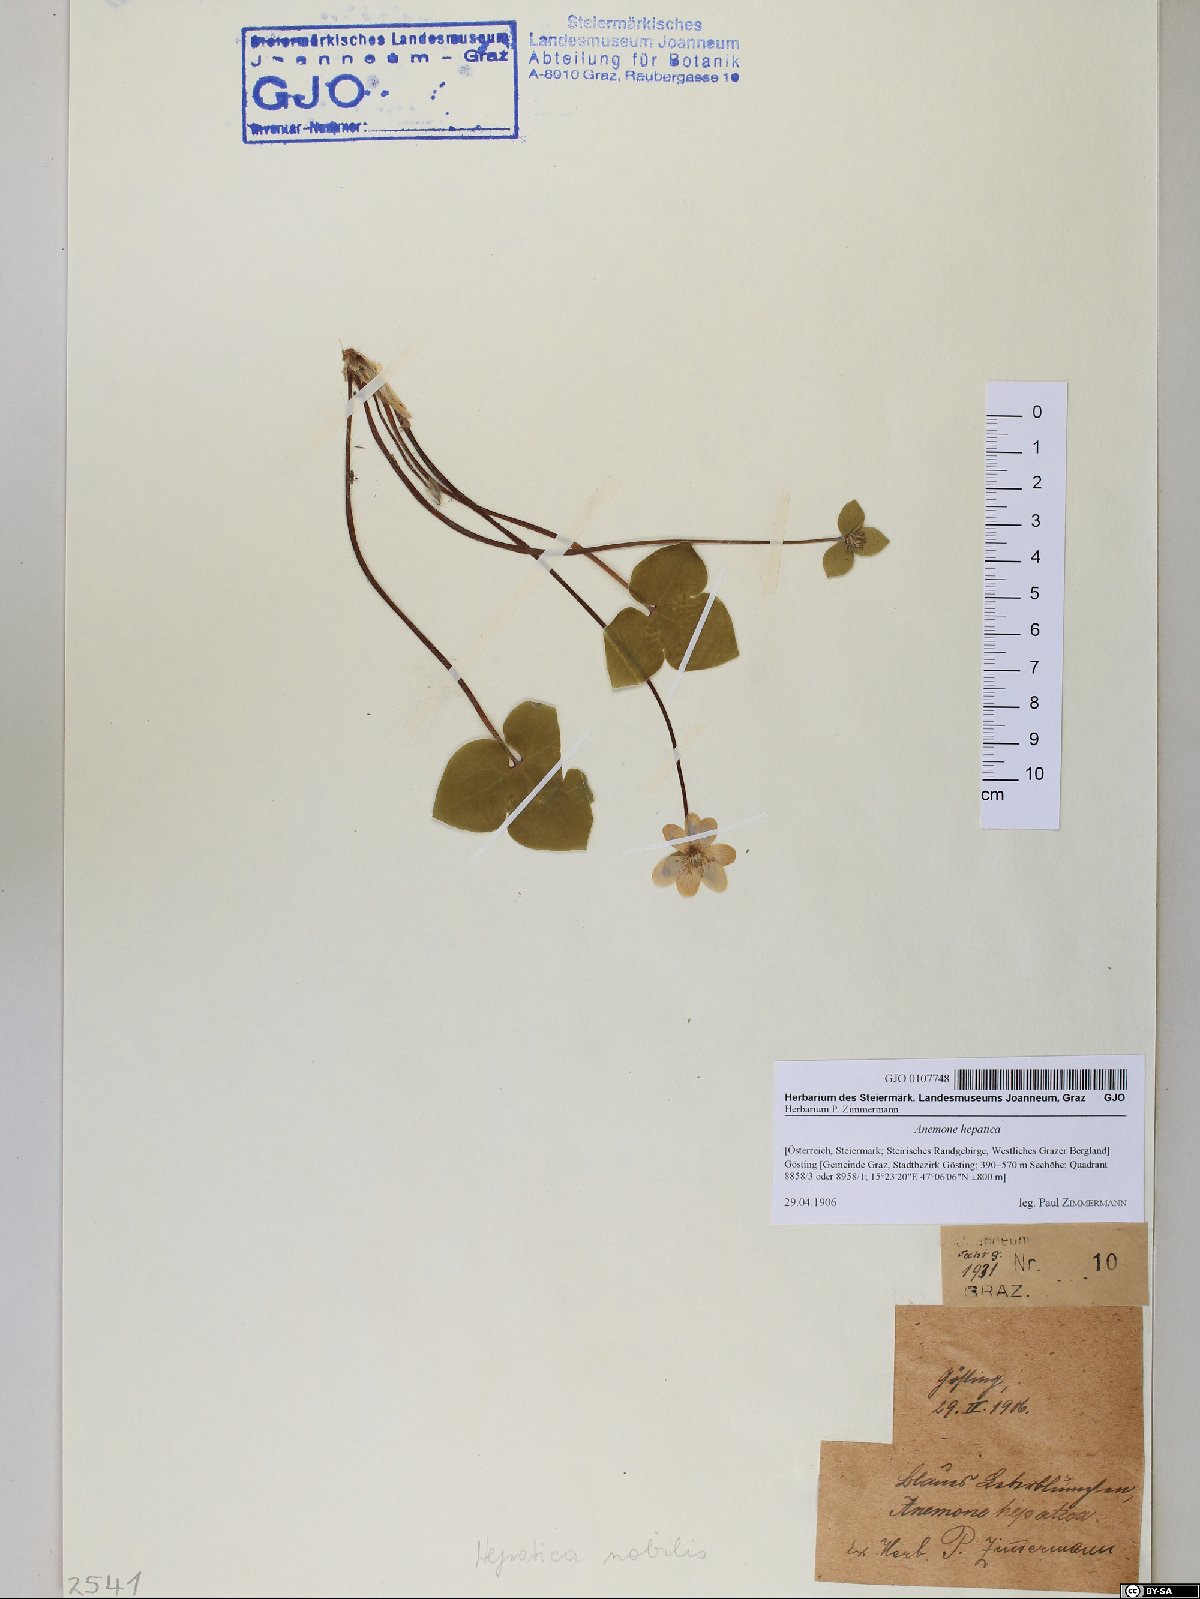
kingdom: Plantae
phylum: Tracheophyta
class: Magnoliopsida
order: Ranunculales
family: Ranunculaceae
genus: Hepatica
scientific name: Hepatica nobilis
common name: Liverleaf
